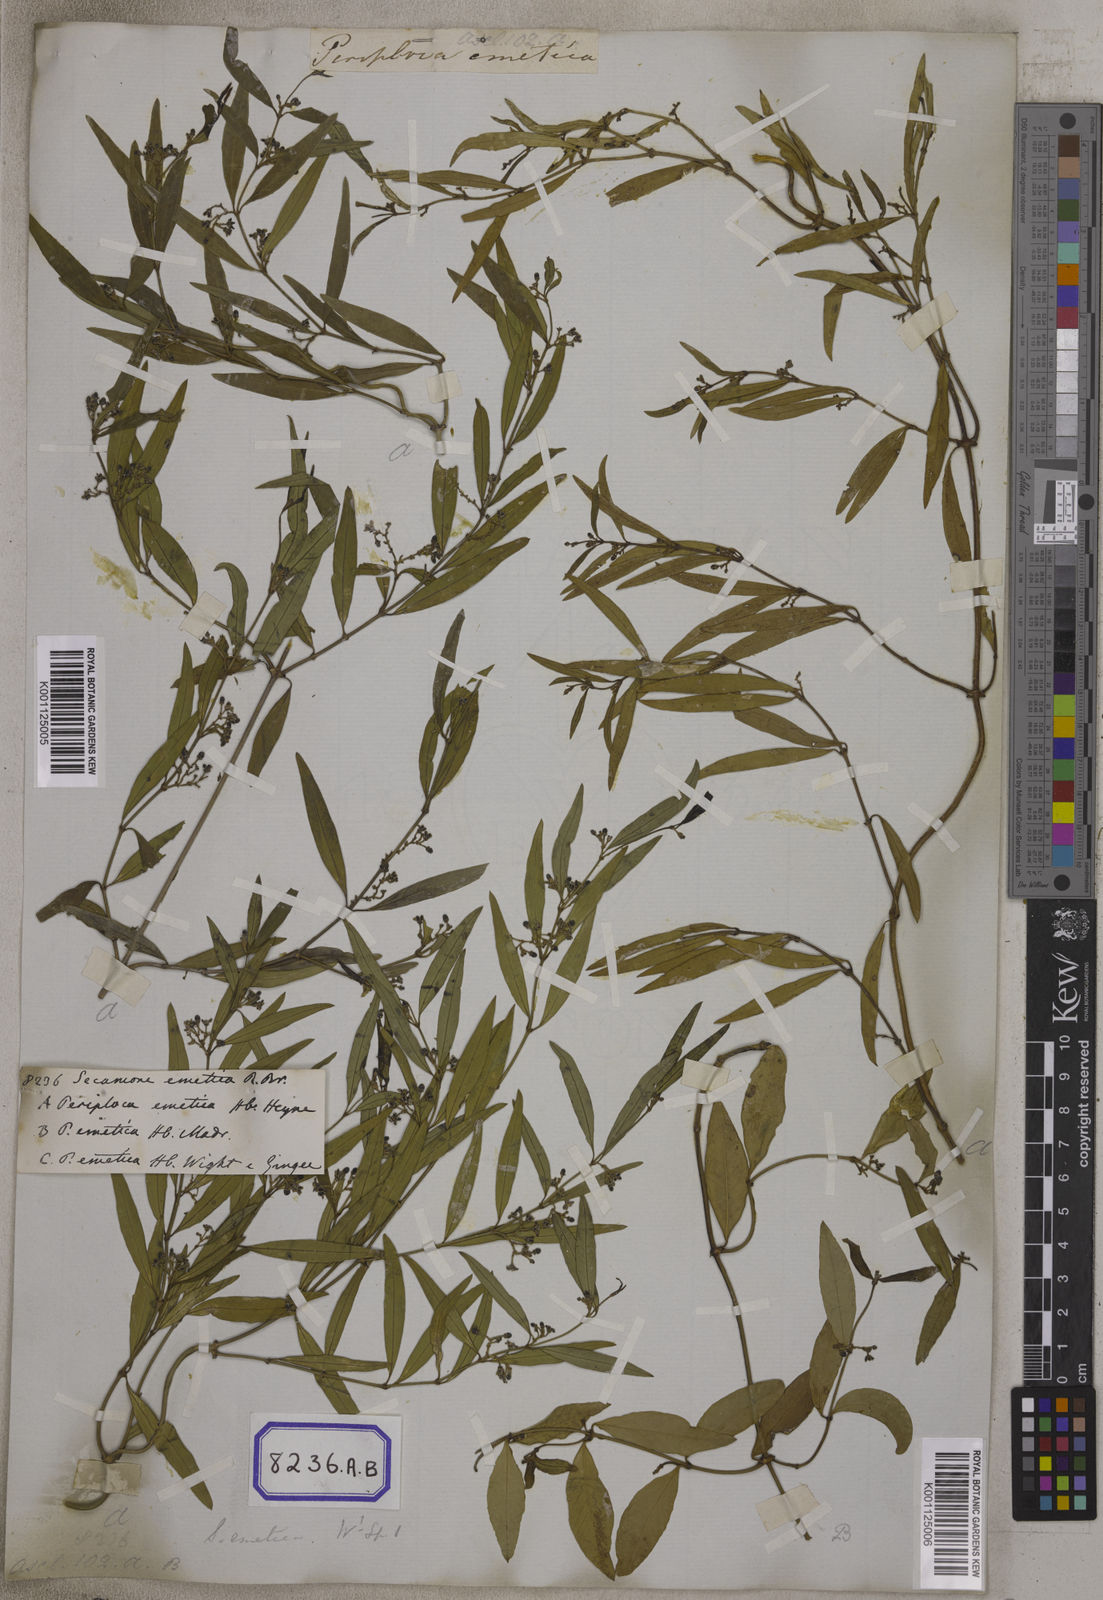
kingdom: Plantae
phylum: Tracheophyta
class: Magnoliopsida
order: Gentianales
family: Apocynaceae
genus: Secamone
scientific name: Secamone
